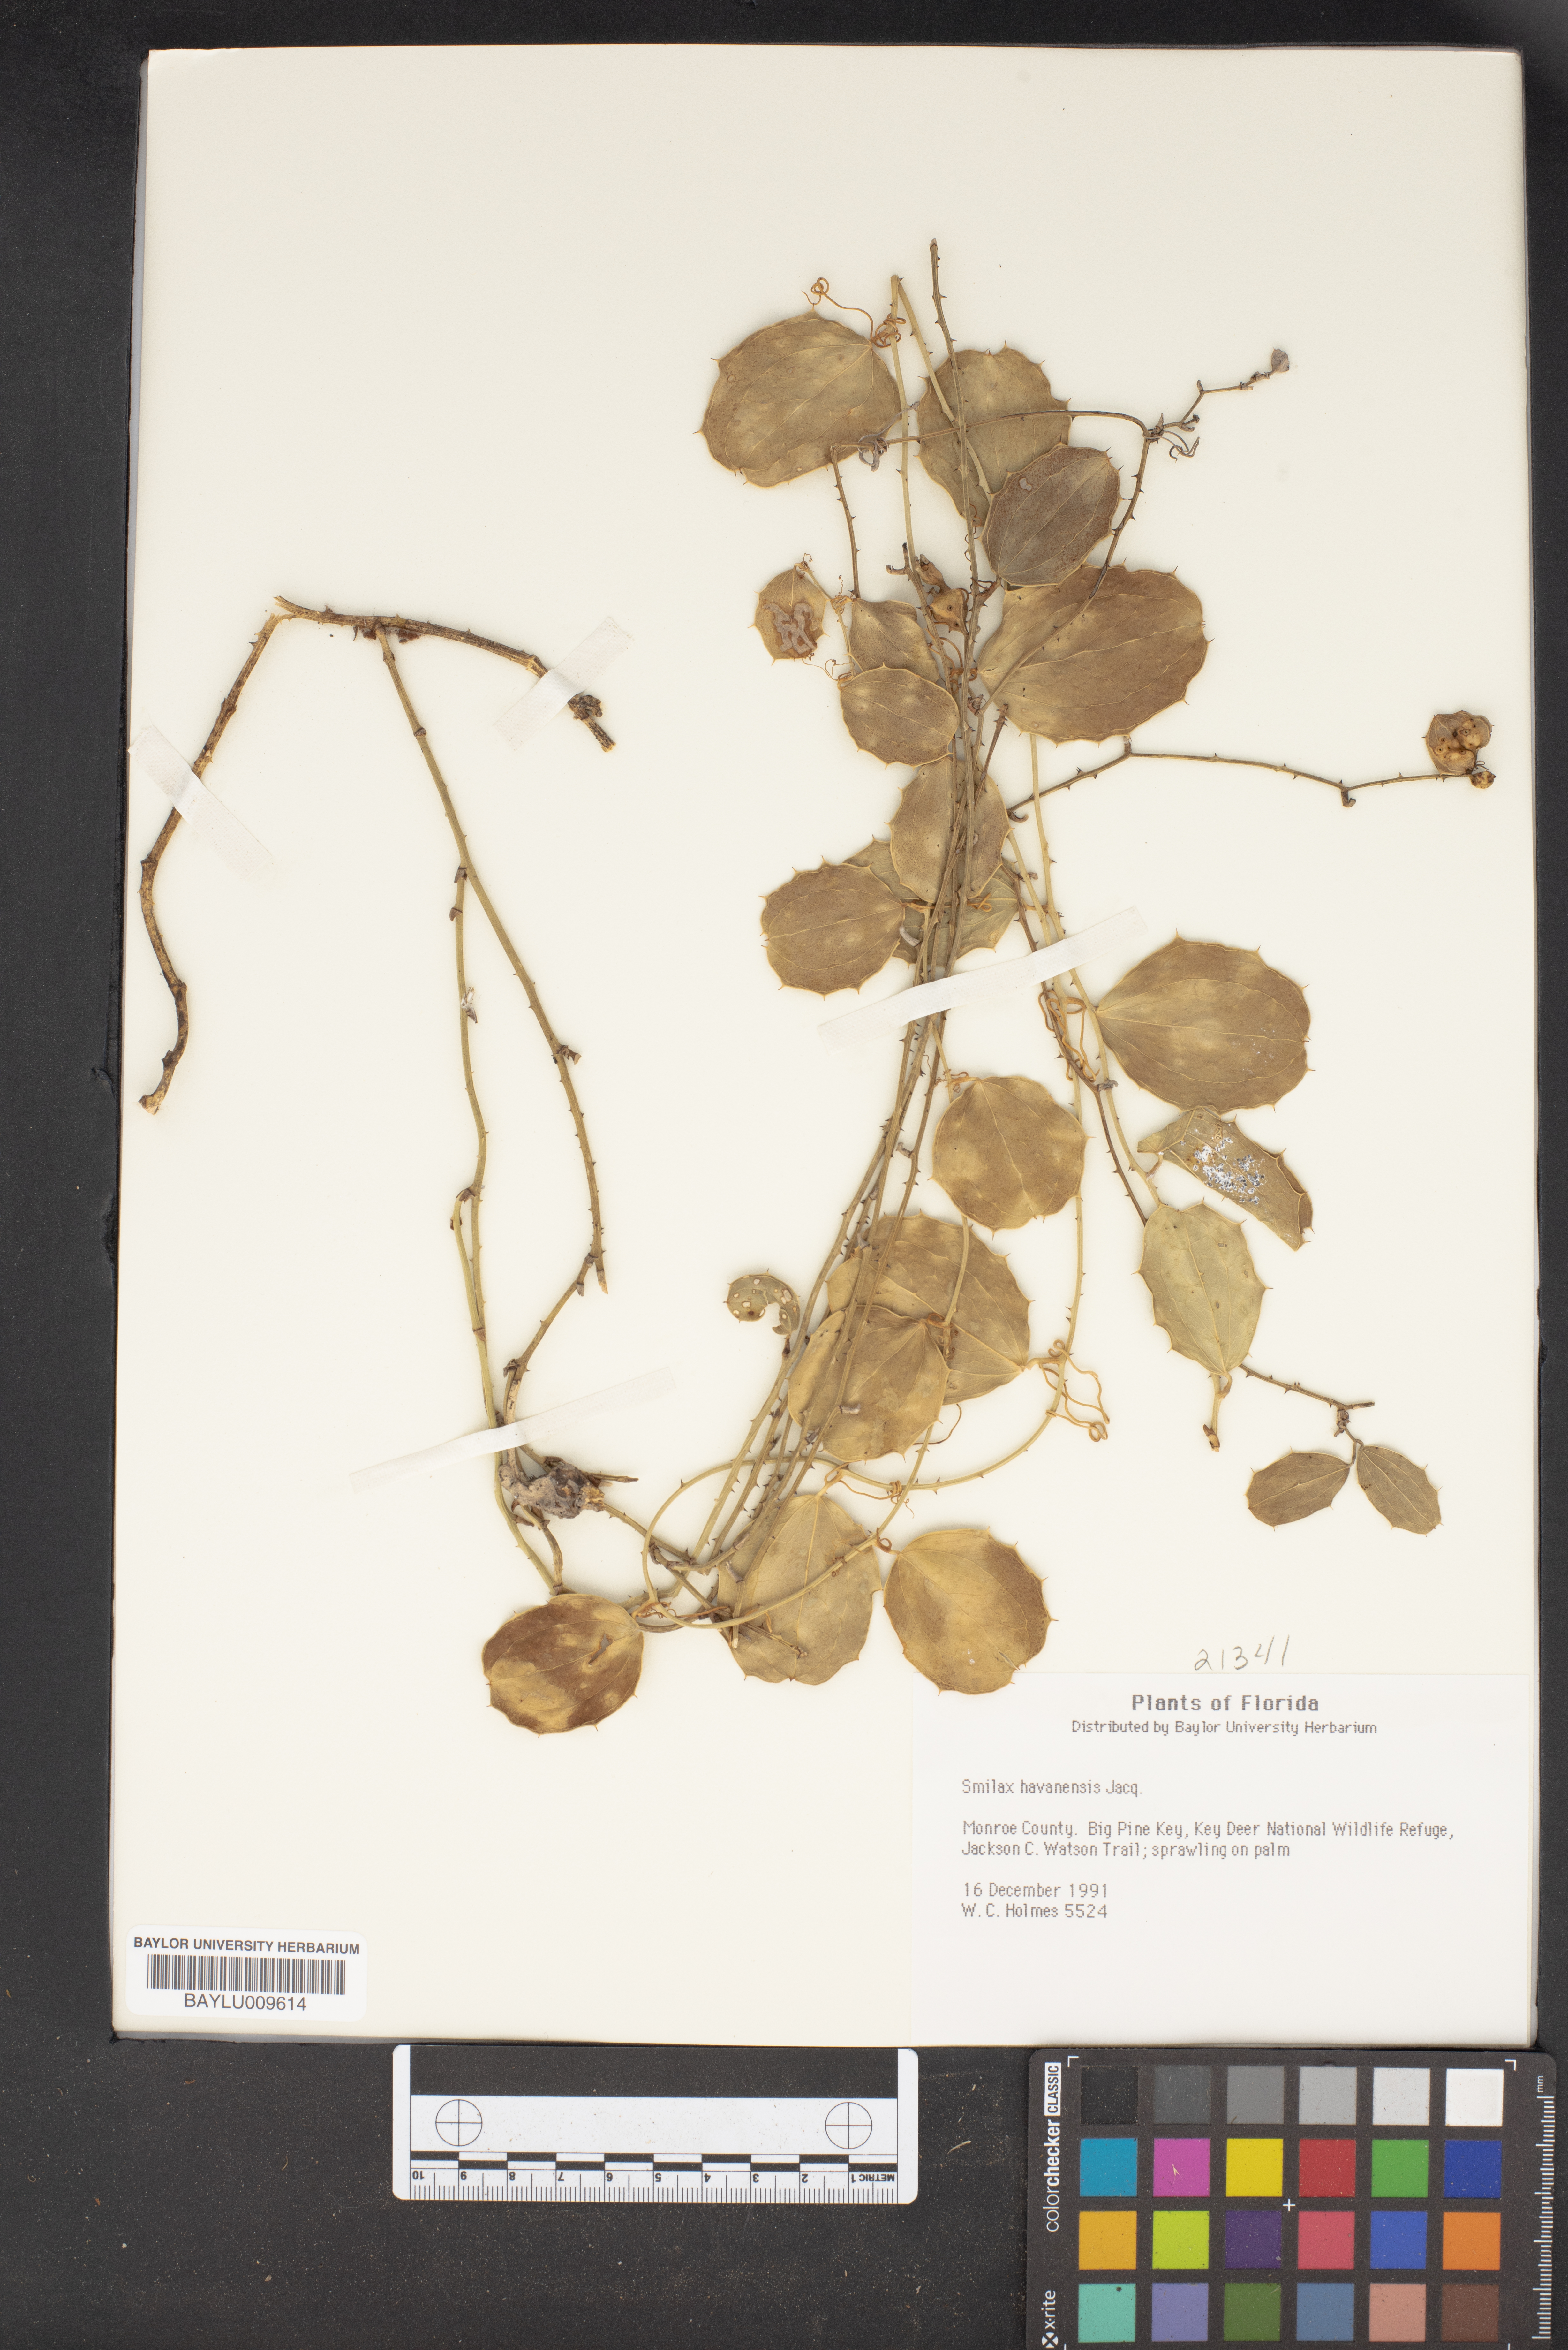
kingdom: Plantae
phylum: Tracheophyta
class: Liliopsida
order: Liliales
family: Smilacaceae
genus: Smilax
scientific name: Smilax havanensis
